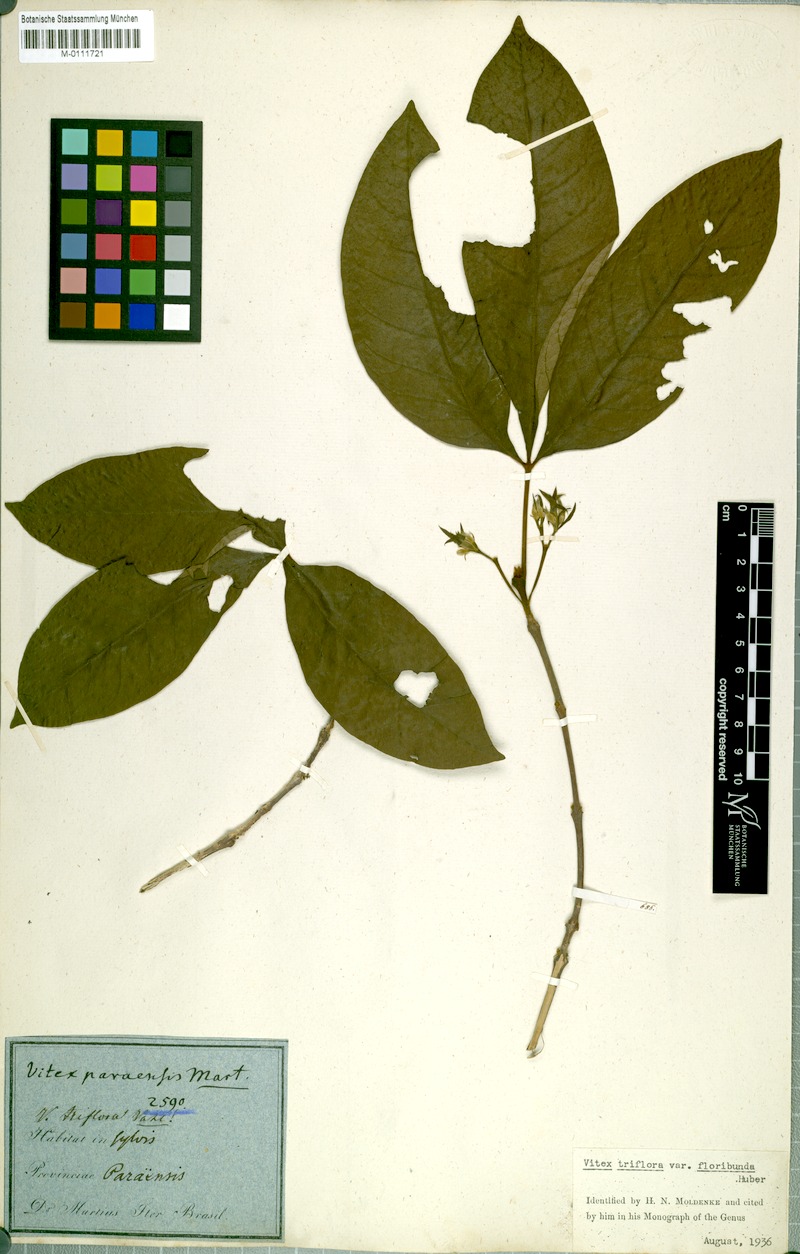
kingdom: Plantae
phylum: Tracheophyta
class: Magnoliopsida
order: Lamiales
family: Lamiaceae
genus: Vitex
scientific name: Vitex triflora
